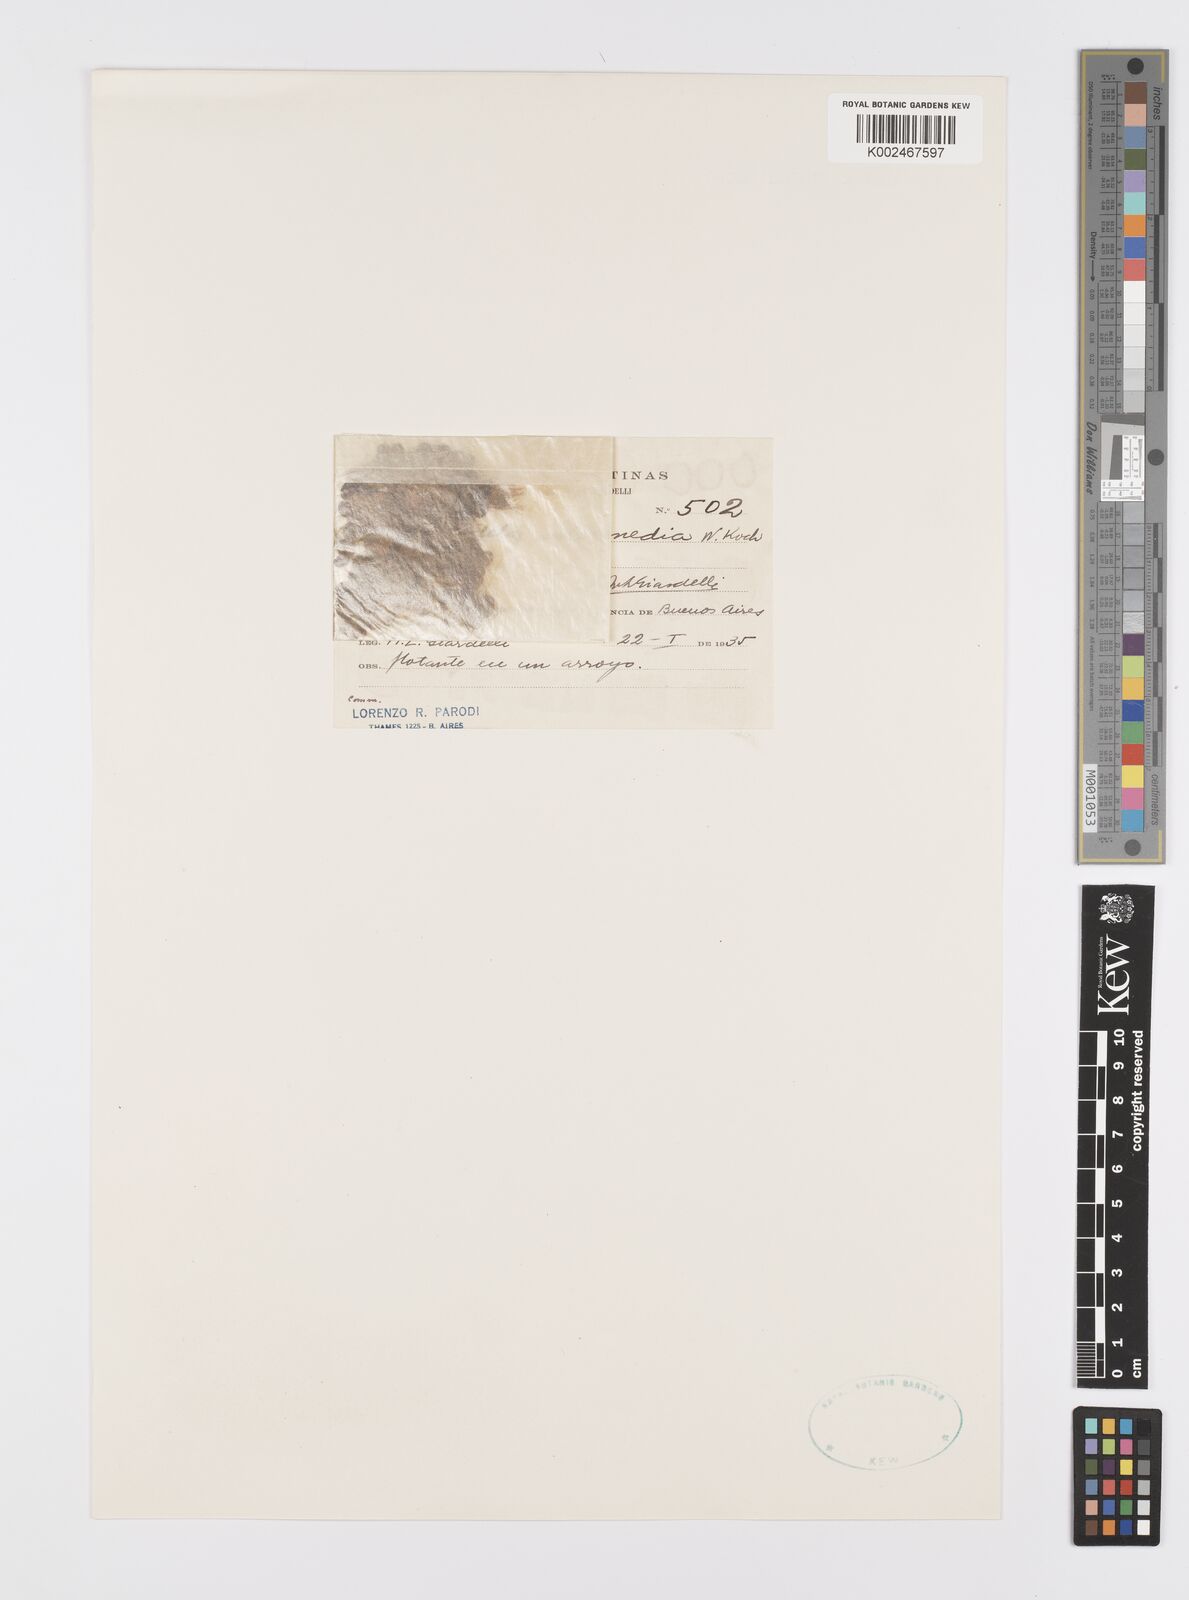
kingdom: Plantae
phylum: Tracheophyta
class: Liliopsida
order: Alismatales
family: Araceae
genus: Spirodela
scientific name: Spirodela punctata
